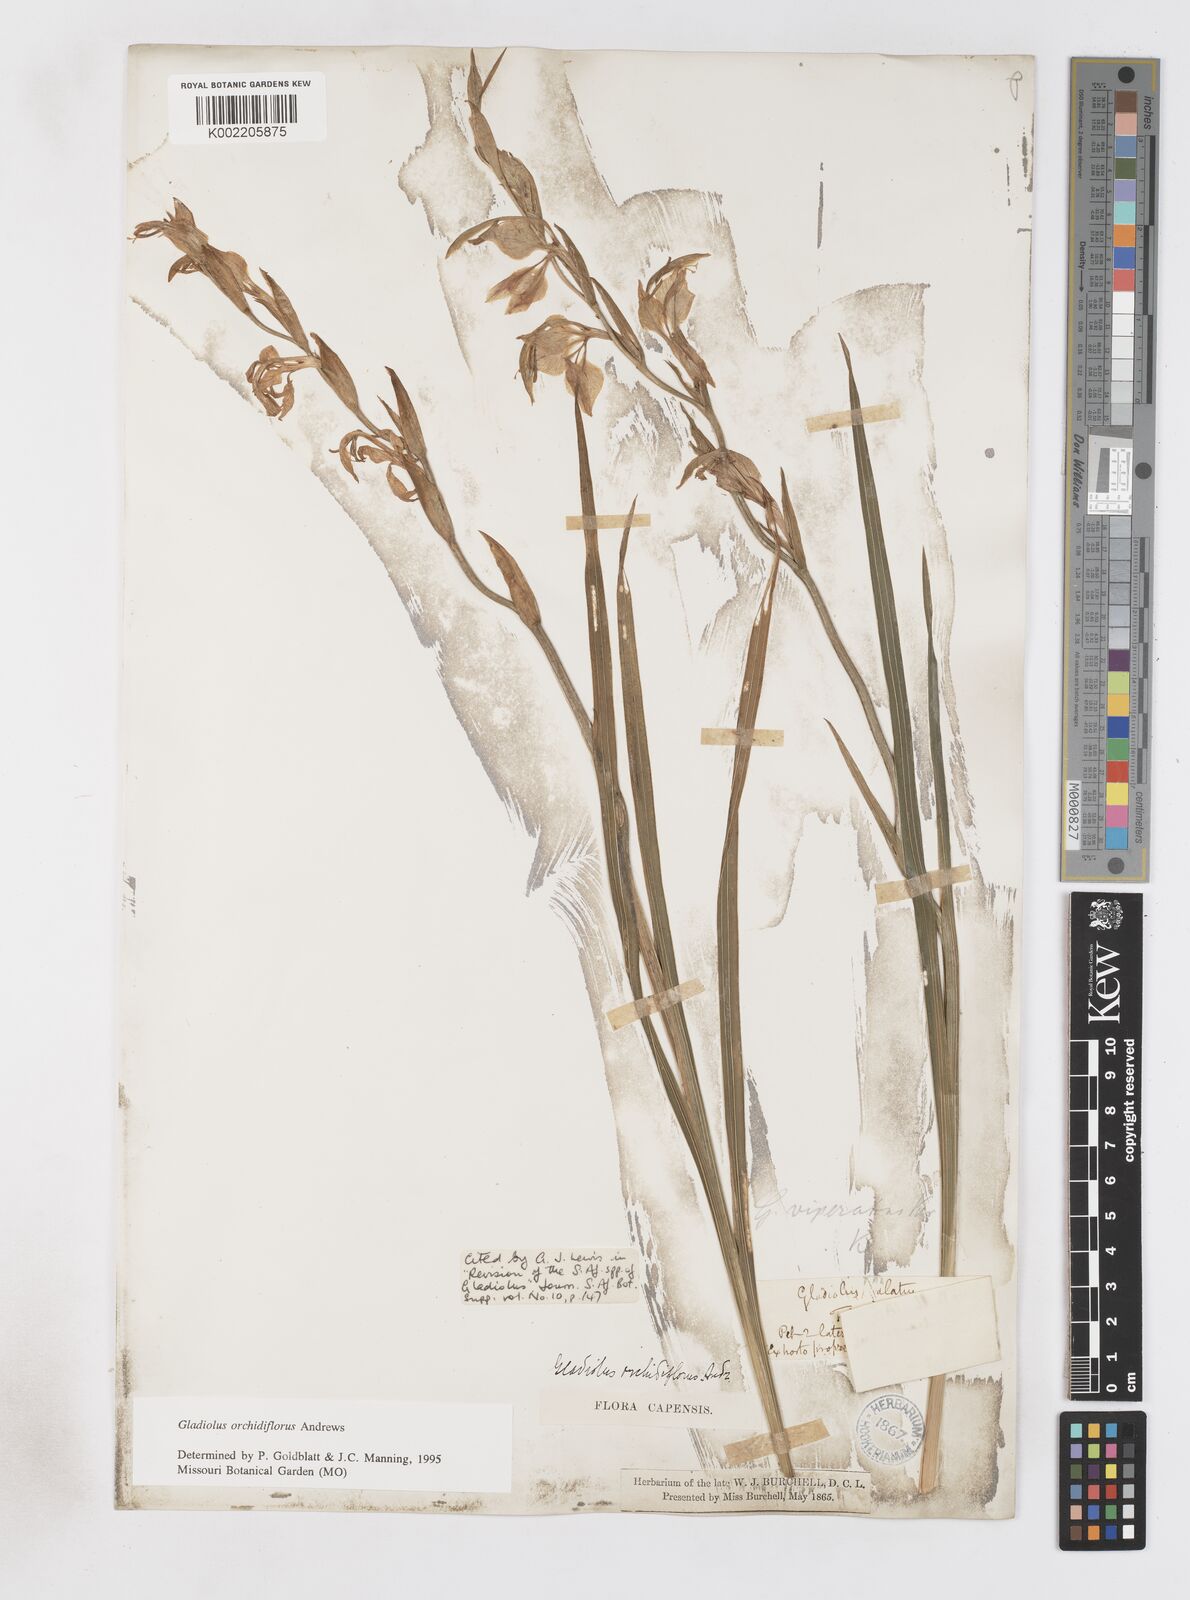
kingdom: Plantae
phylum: Tracheophyta
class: Liliopsida
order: Asparagales
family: Iridaceae
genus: Gladiolus
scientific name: Gladiolus orchidiflorus
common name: Gray kalkoentjie
